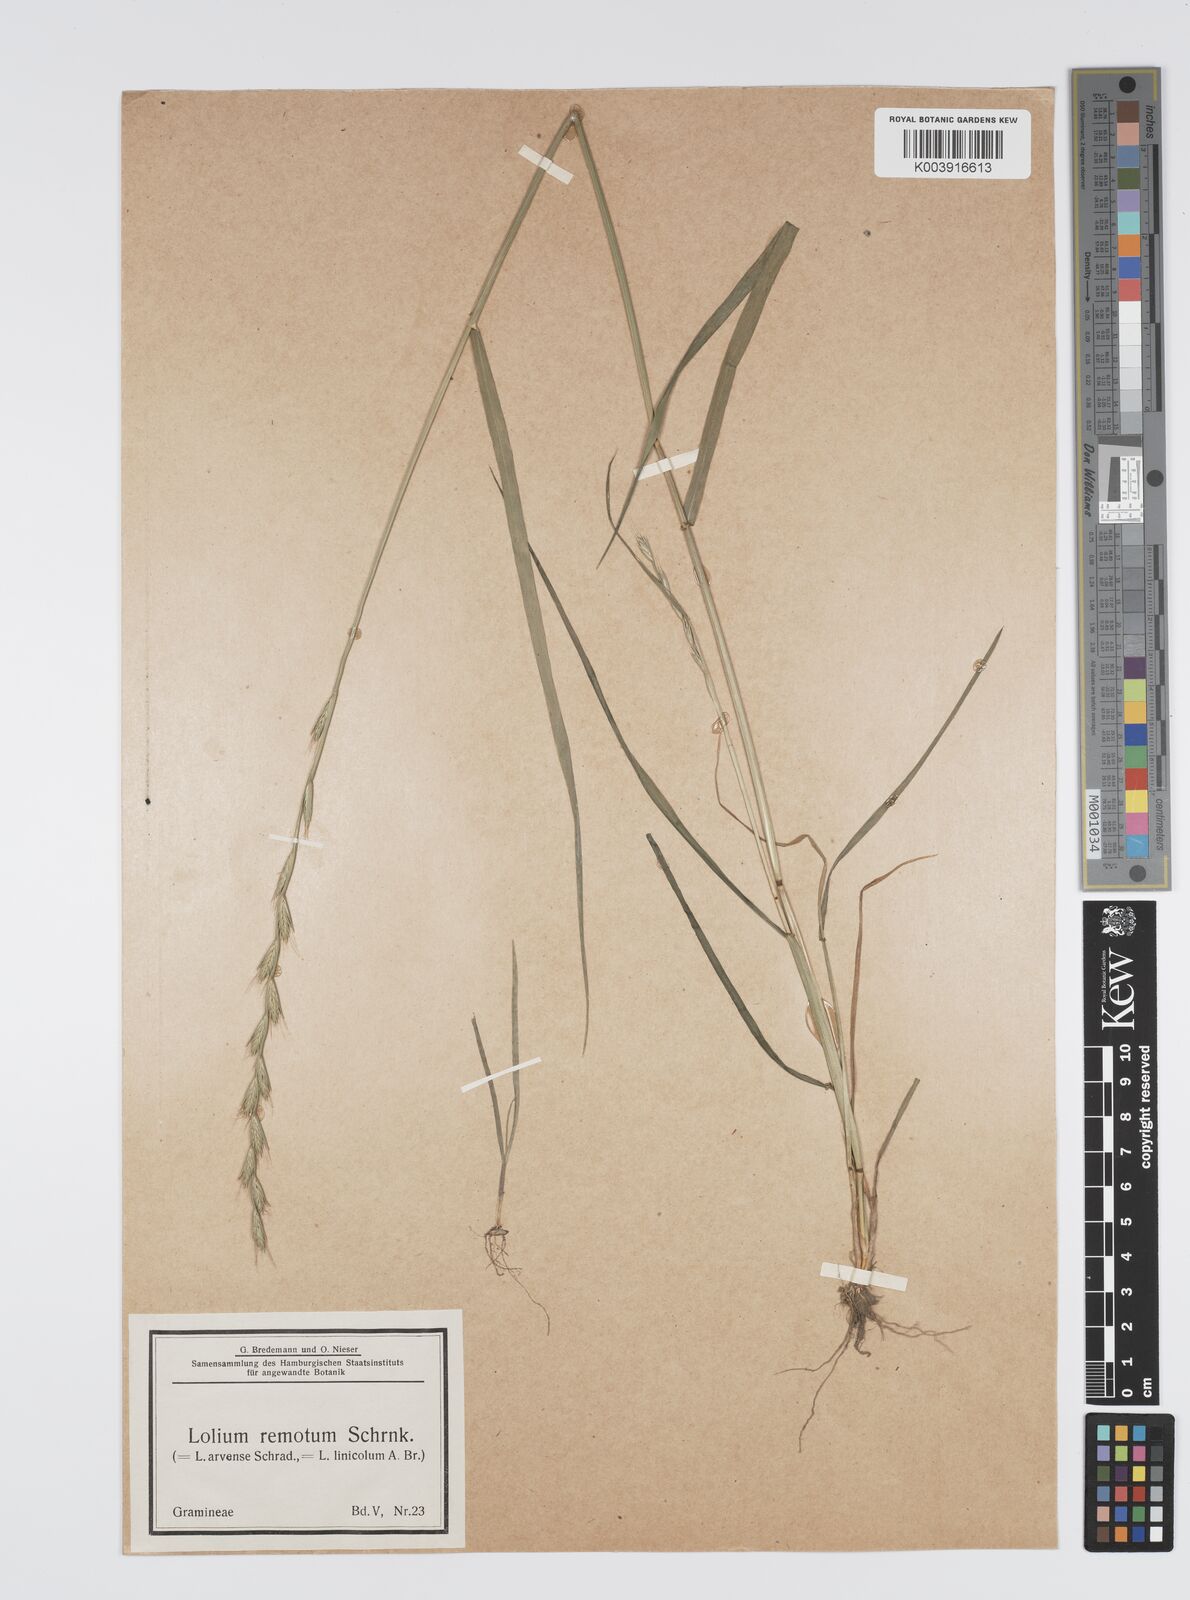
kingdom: Plantae
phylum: Tracheophyta
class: Liliopsida
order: Poales
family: Poaceae
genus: Lolium
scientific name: Lolium remotum
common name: Flaxfield rye-grass
